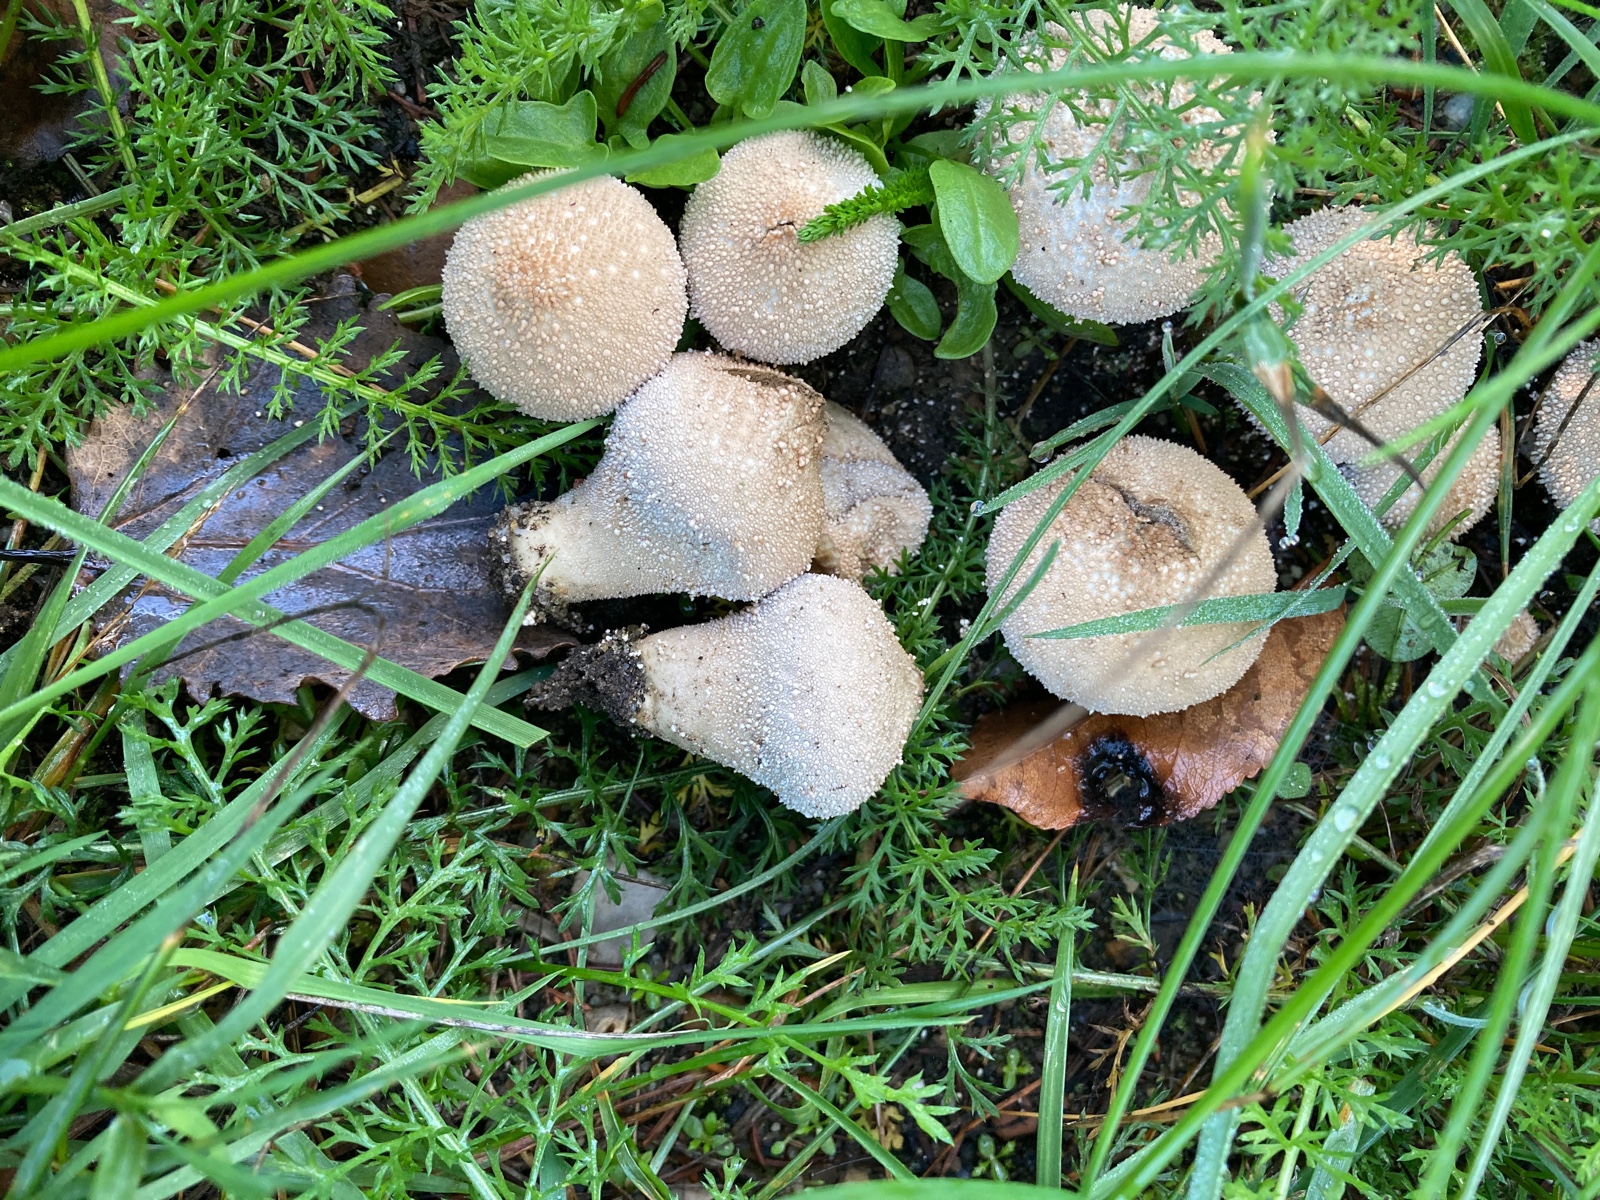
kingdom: Fungi
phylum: Basidiomycota
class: Agaricomycetes
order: Agaricales
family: Lycoperdaceae
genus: Lycoperdon
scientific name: Lycoperdon perlatum
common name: krystal-støvbold
